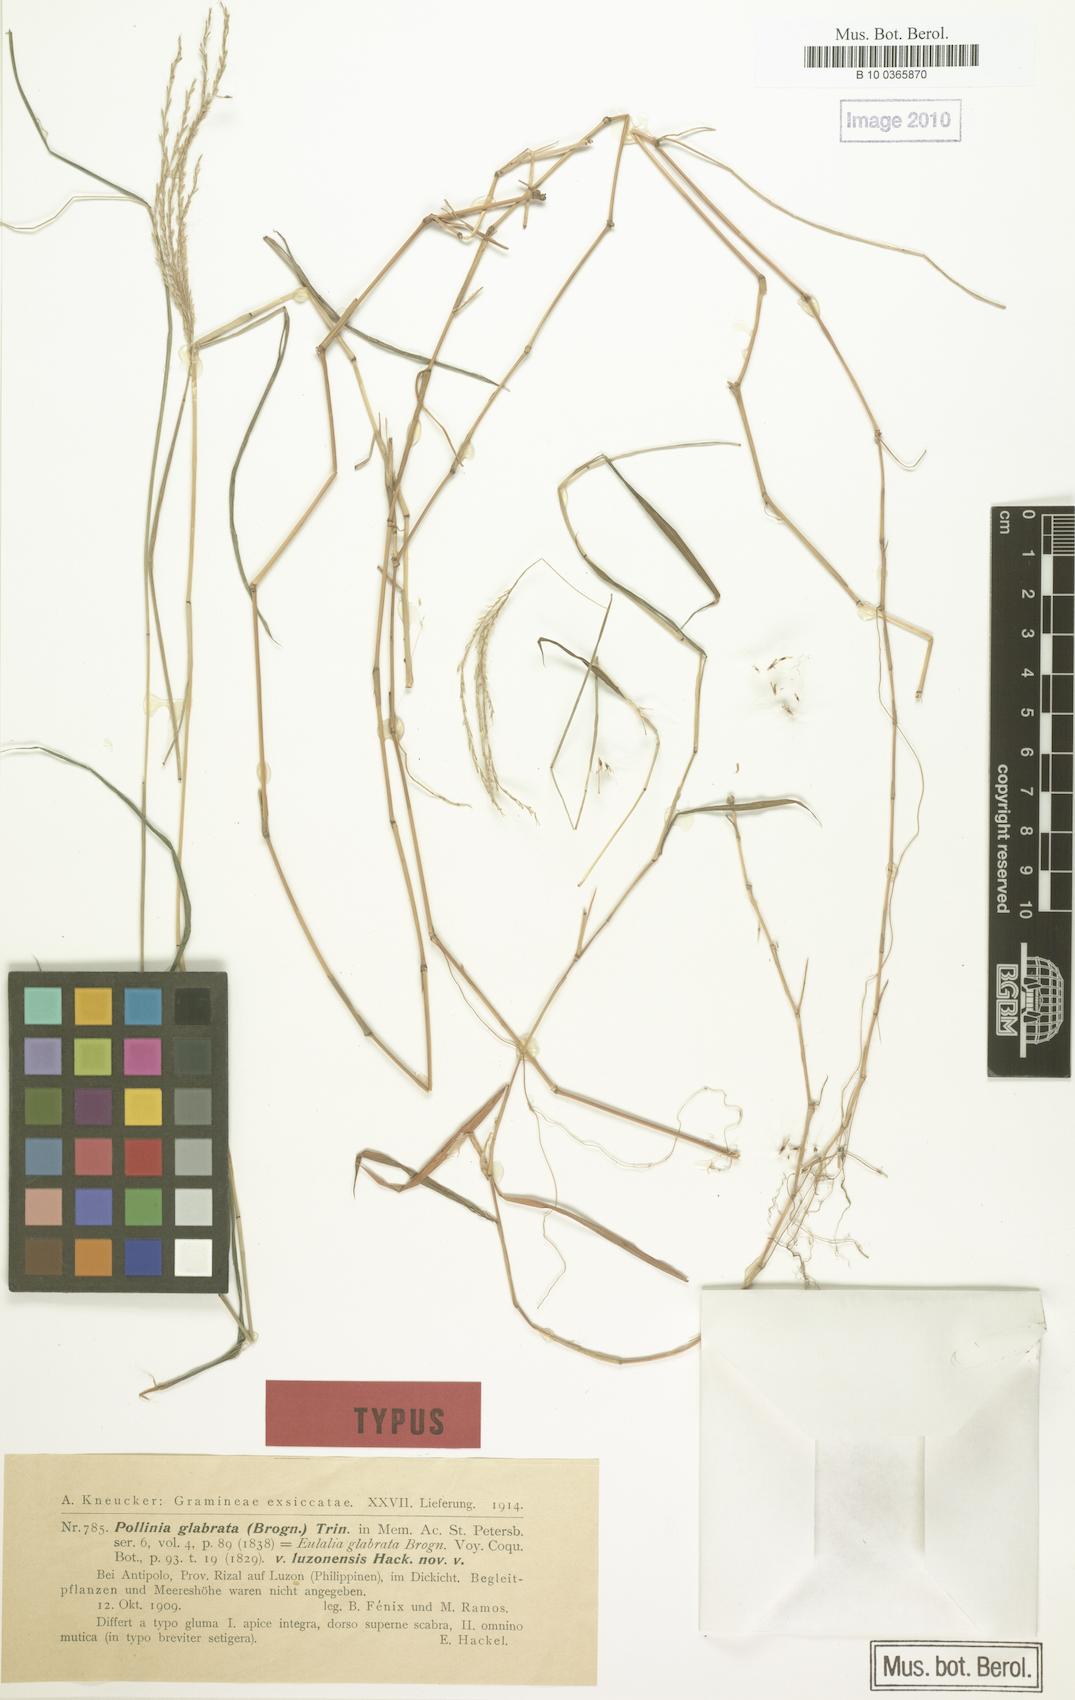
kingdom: Plantae
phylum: Tracheophyta
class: Liliopsida
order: Poales
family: Poaceae
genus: Microstegium
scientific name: Microstegium glabratum
